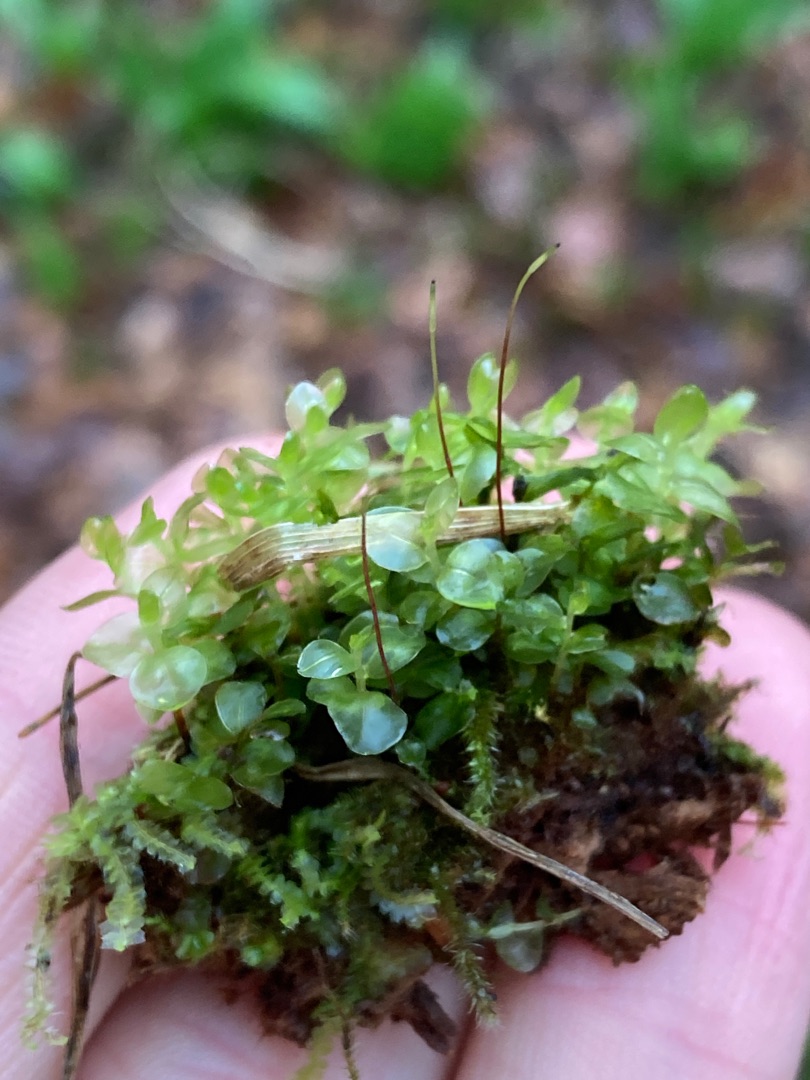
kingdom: Plantae
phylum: Bryophyta
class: Bryopsida
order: Bryales
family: Mniaceae
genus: Rhizomnium
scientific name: Rhizomnium punctatum
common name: Almindelig bredblad
